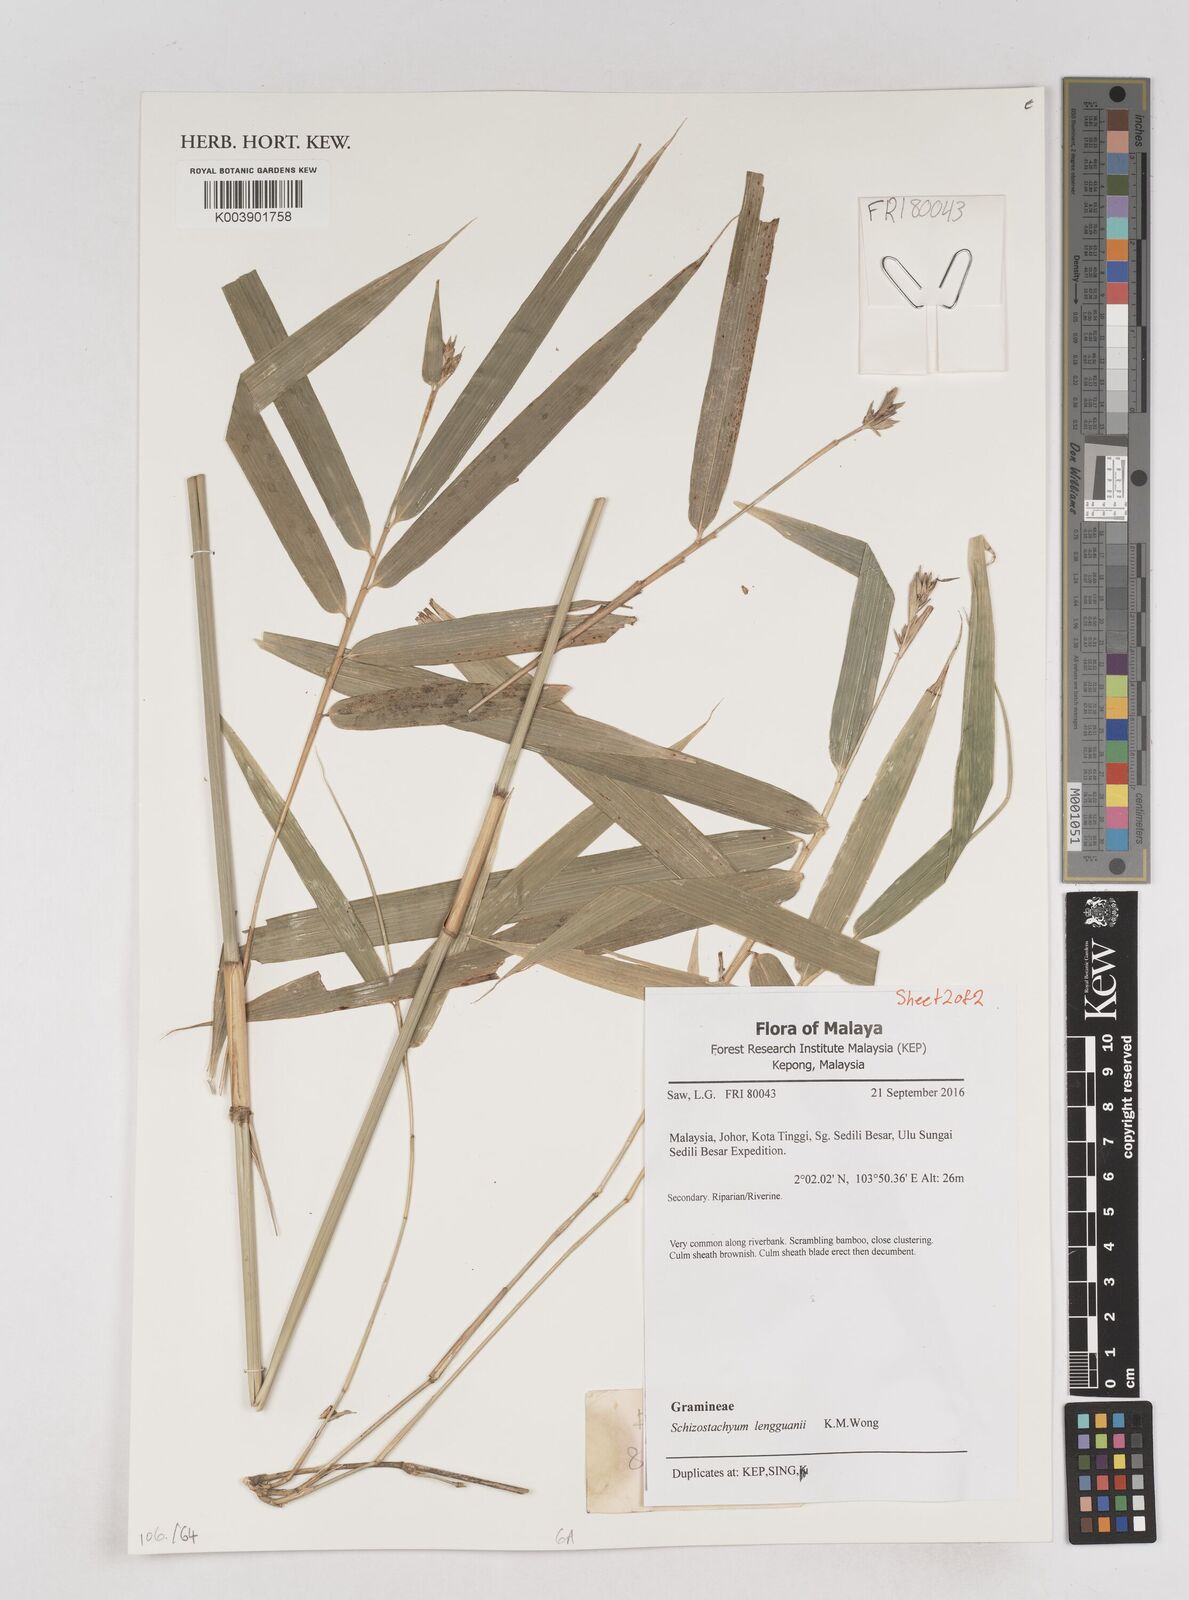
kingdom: Plantae
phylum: Tracheophyta
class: Liliopsida
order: Poales
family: Poaceae
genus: Schizostachyum
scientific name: Schizostachyum lengguanii
